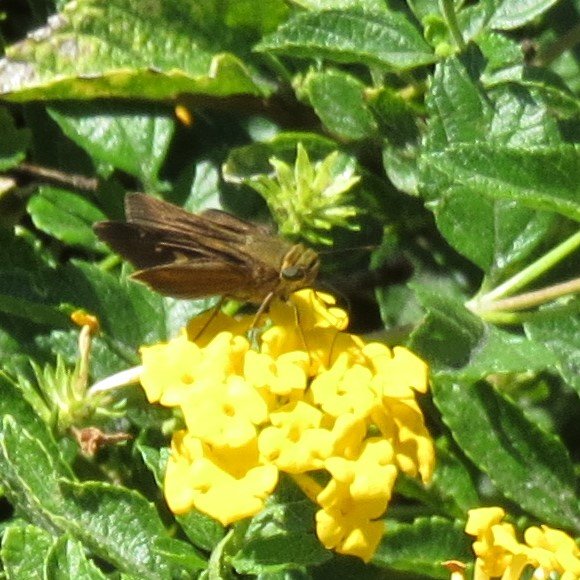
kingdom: Animalia
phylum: Arthropoda
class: Insecta
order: Lepidoptera
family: Hesperiidae
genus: Panoquina
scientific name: Panoquina ocola
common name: Ocola Skipper
